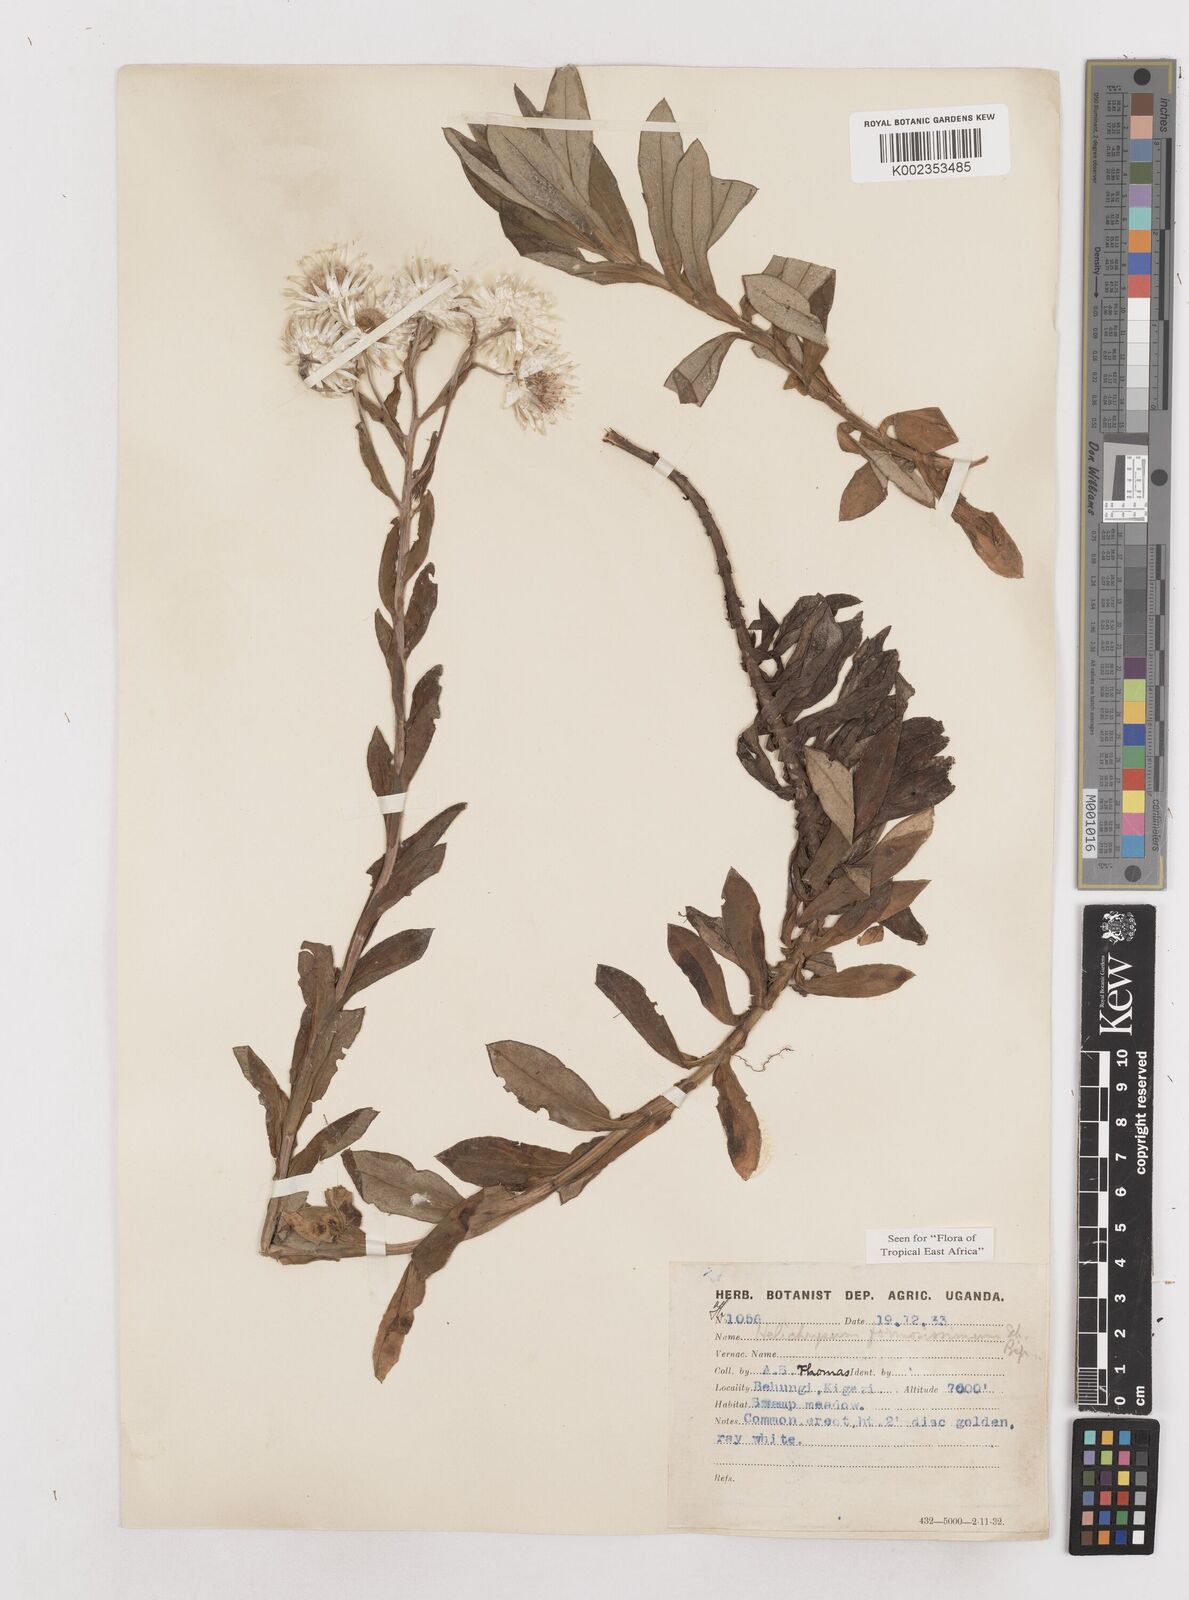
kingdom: Plantae
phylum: Tracheophyta
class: Magnoliopsida
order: Asterales
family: Asteraceae
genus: Helichrysum
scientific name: Helichrysum formosissimum
